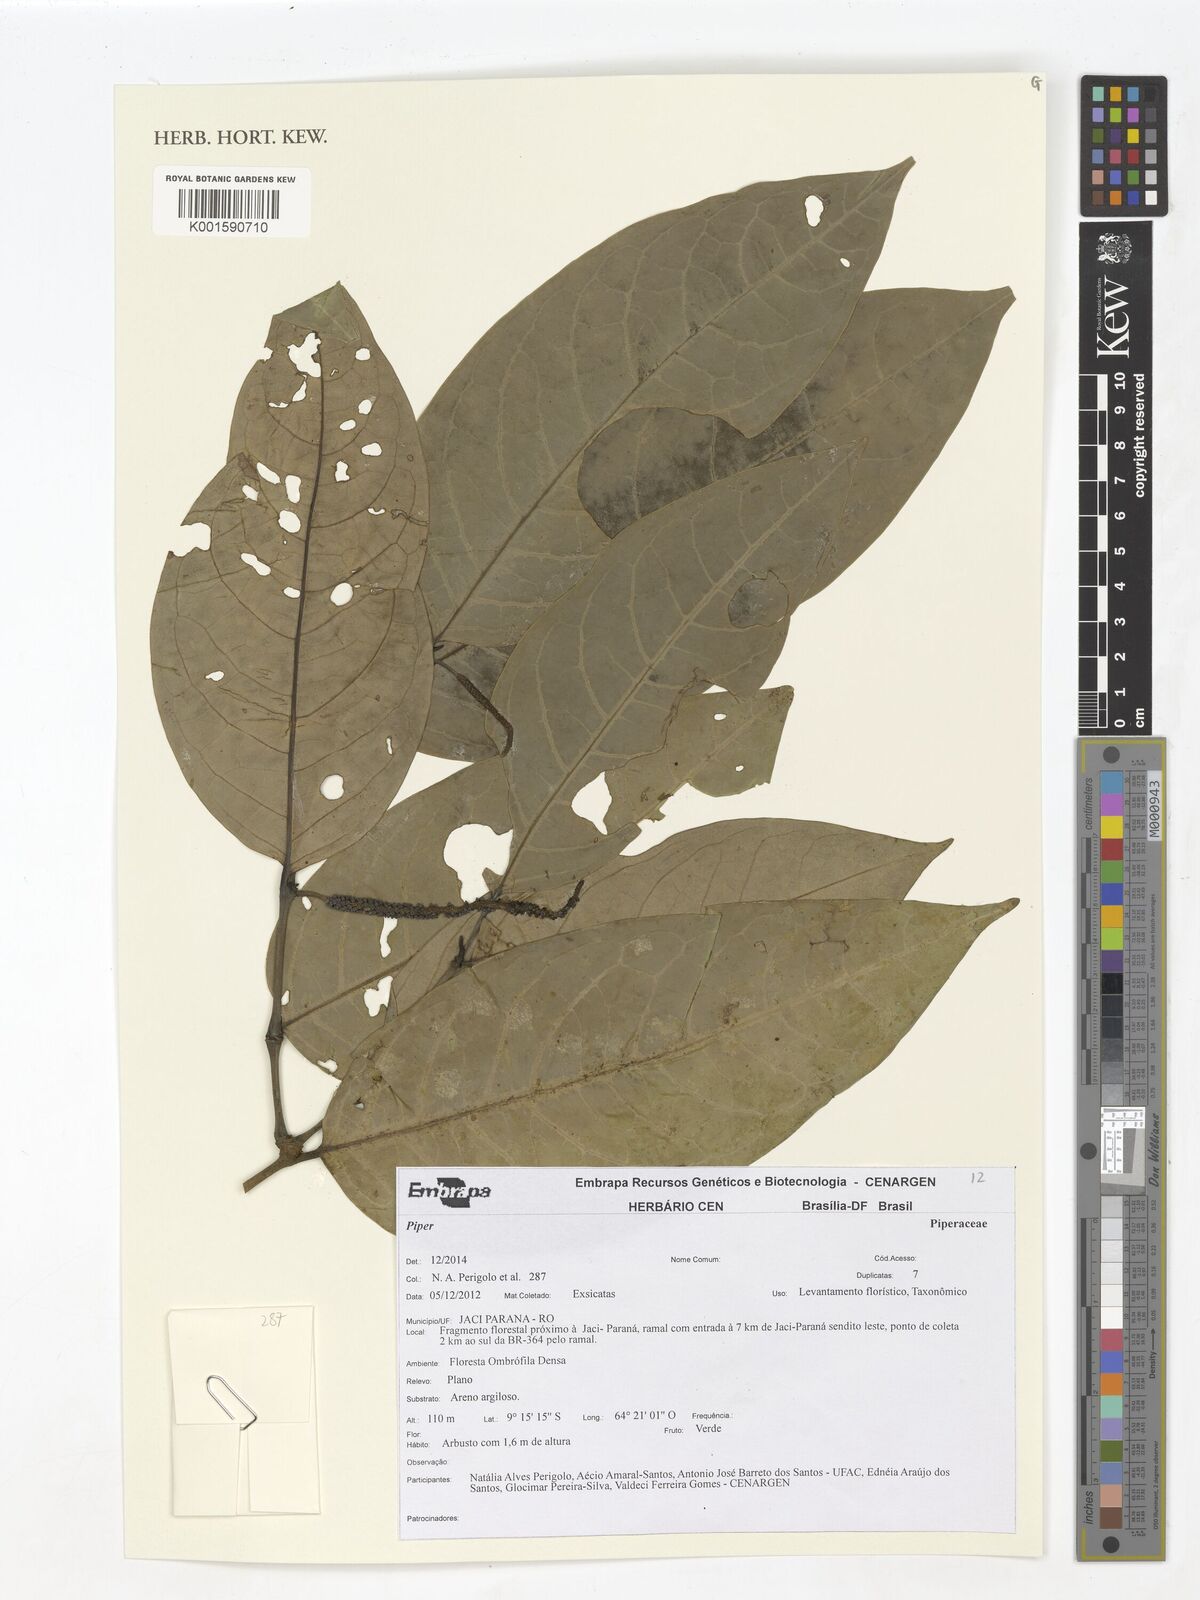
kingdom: Plantae
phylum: Tracheophyta
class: Magnoliopsida
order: Piperales
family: Piperaceae
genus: Piper
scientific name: Piper
